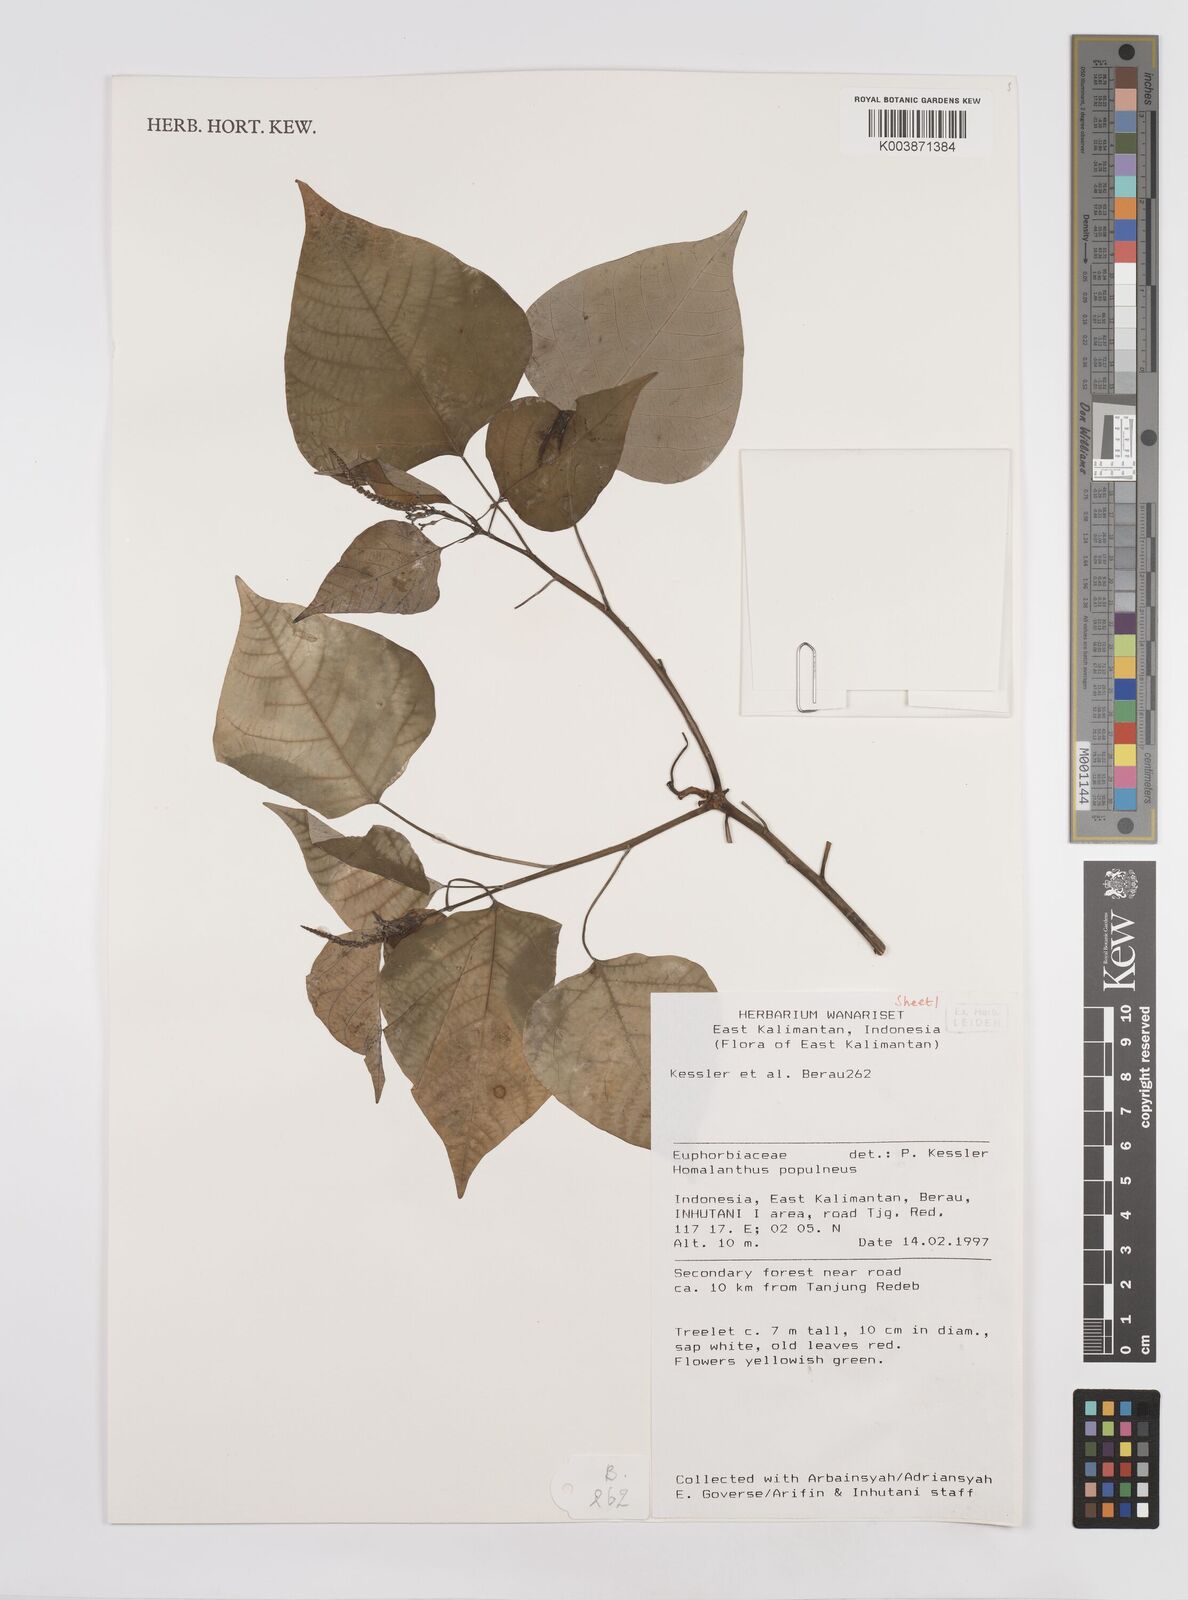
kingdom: Plantae
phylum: Tracheophyta
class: Magnoliopsida
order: Malpighiales
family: Euphorbiaceae
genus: Homalanthus
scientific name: Homalanthus populneus
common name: Spurge
